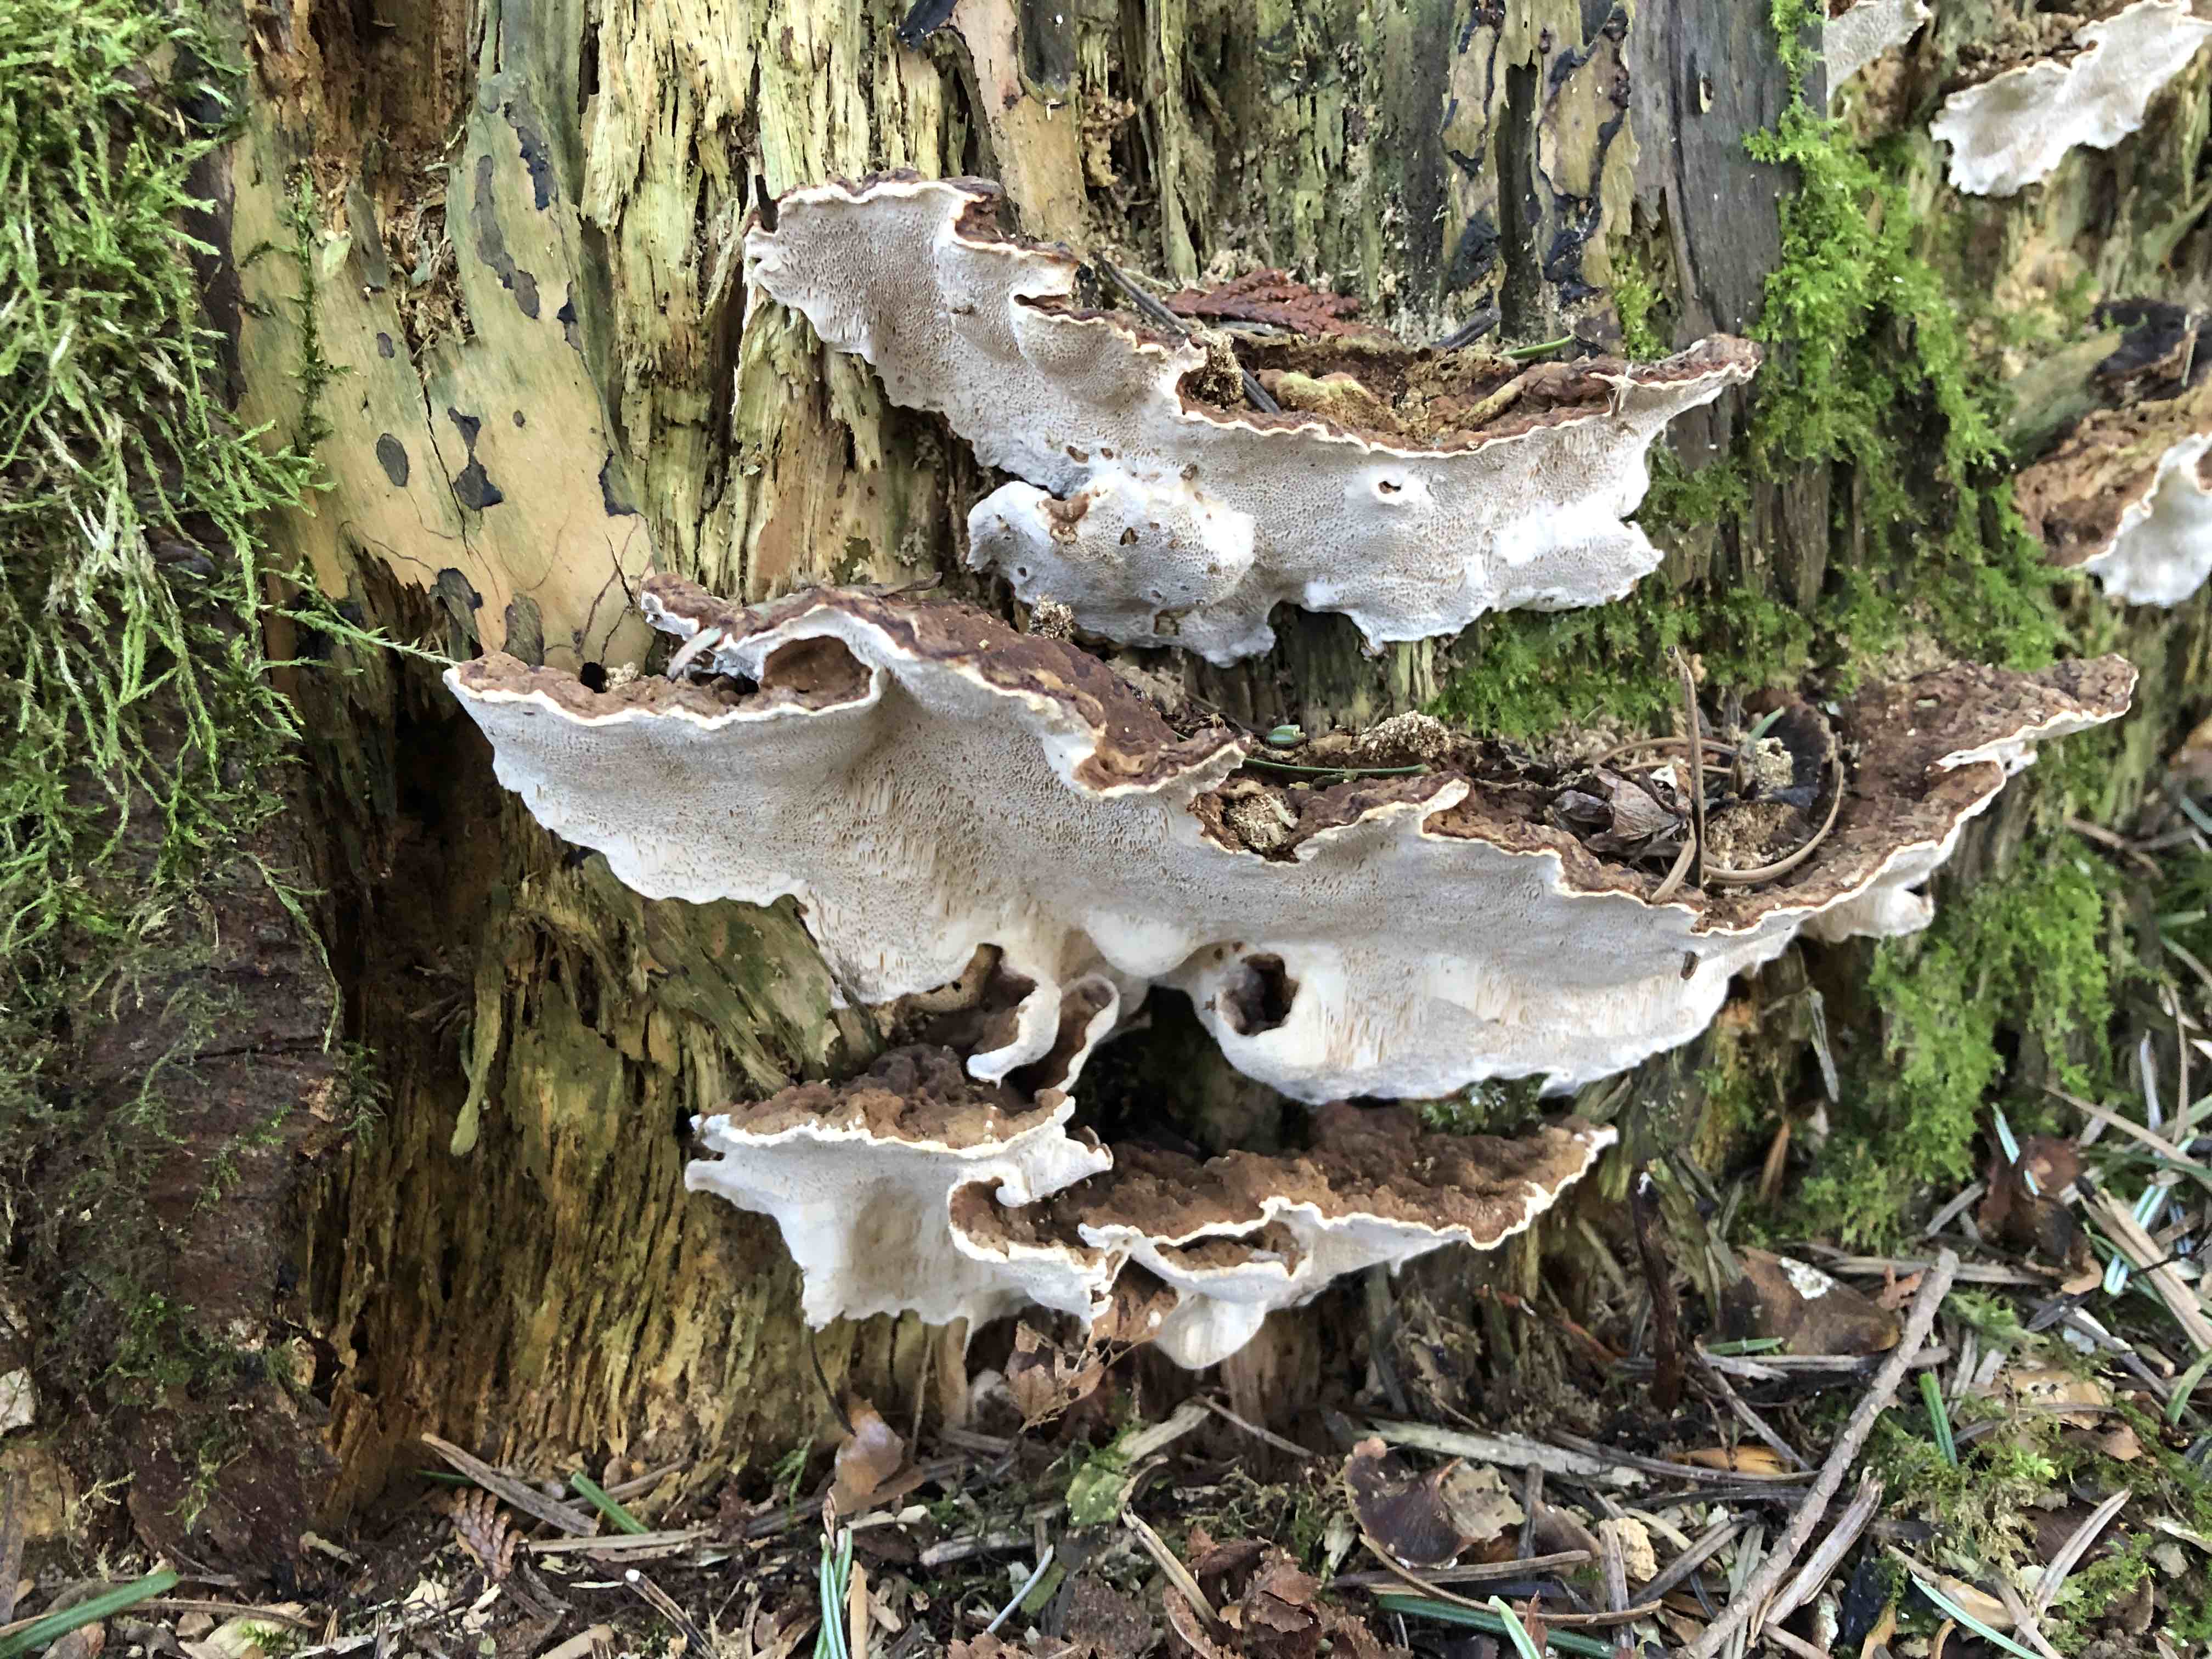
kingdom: Fungi
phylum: Basidiomycota
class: Agaricomycetes
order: Russulales
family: Bondarzewiaceae
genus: Heterobasidion
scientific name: Heterobasidion annosum
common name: almindelig rodfordærver
